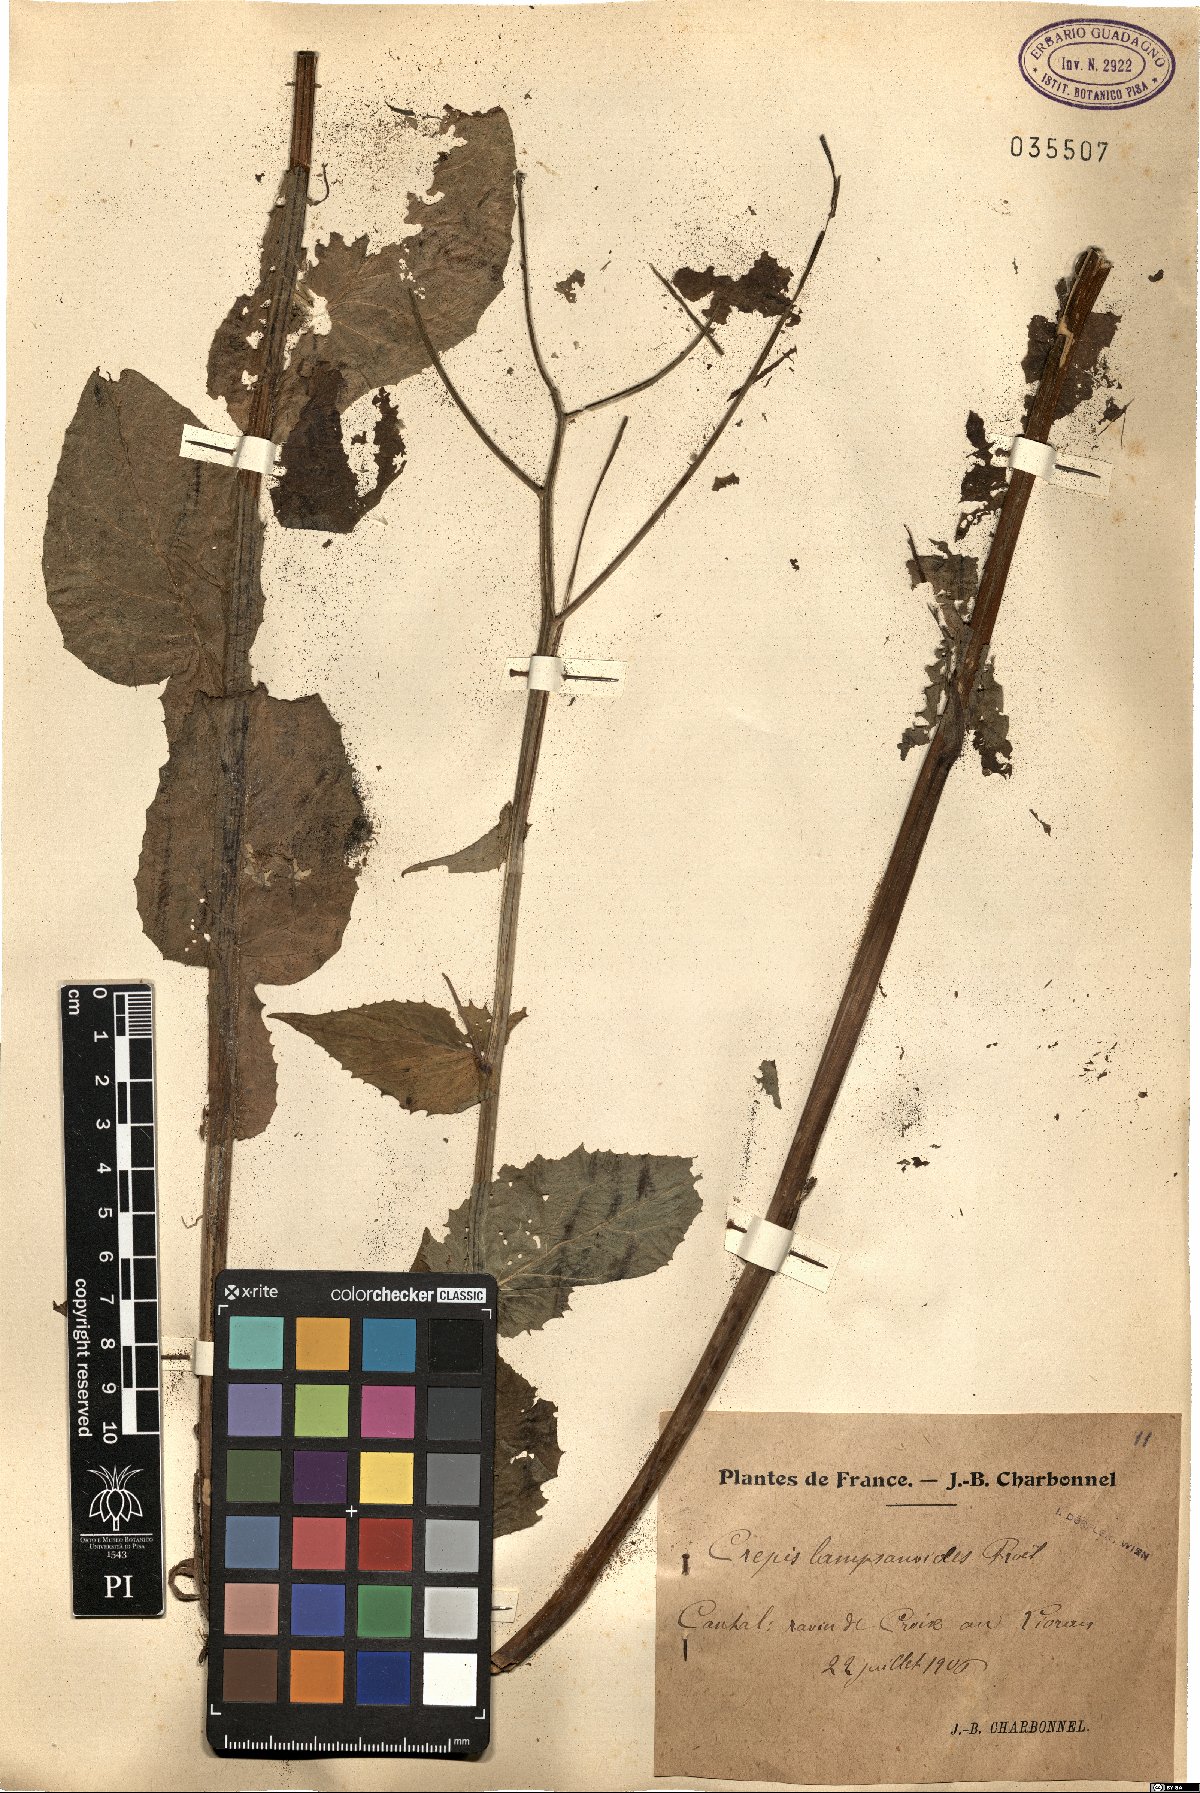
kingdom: Plantae
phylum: Tracheophyta
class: Magnoliopsida
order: Asterales
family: Asteraceae
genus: Crepis
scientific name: Crepis lampsanoides
